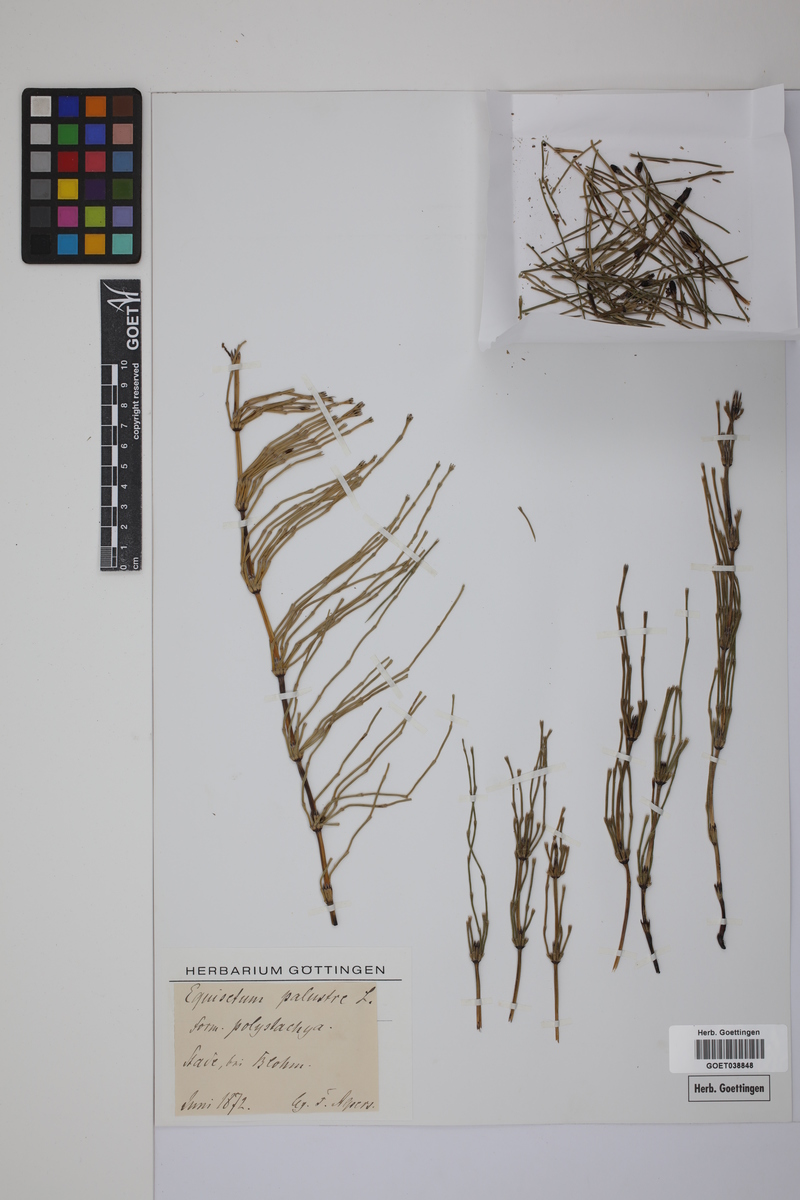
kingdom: Plantae
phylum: Tracheophyta
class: Polypodiopsida
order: Equisetales
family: Equisetaceae
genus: Equisetum
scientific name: Equisetum palustre
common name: Marsh horsetail
